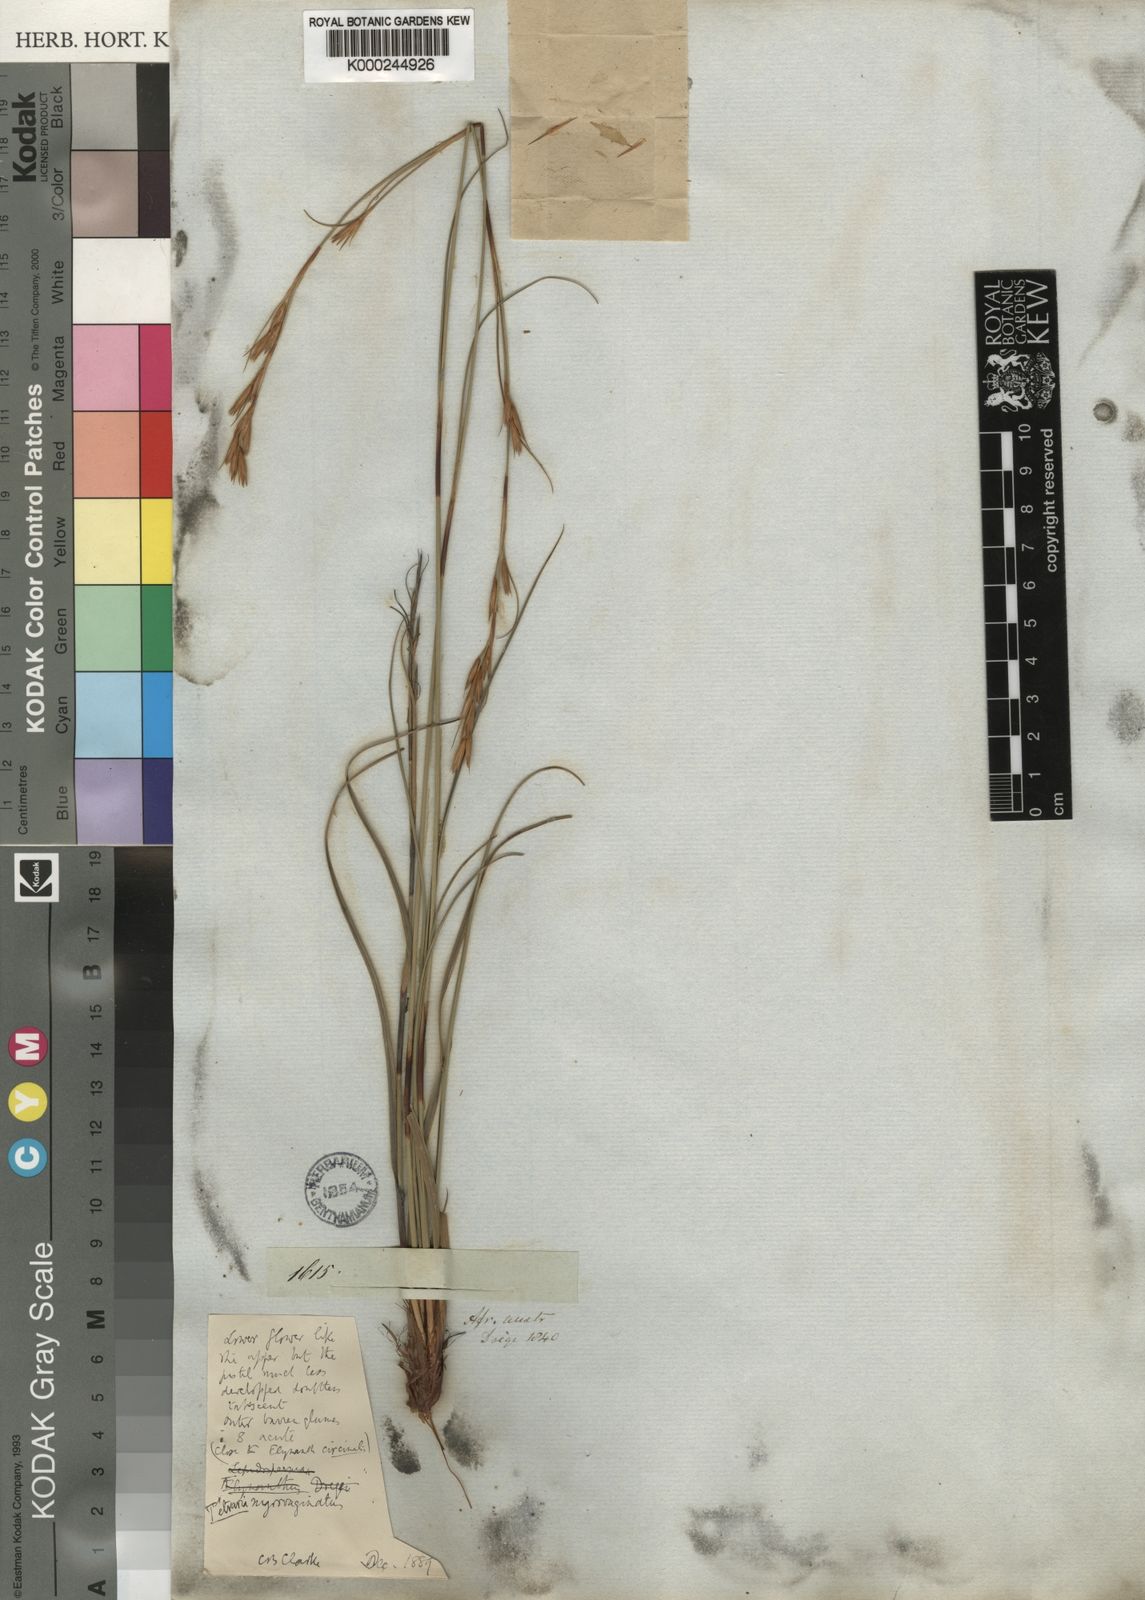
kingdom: Plantae
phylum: Tracheophyta
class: Liliopsida
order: Poales
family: Cyperaceae
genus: Tetraria
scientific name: Tetraria nigrovaginata
